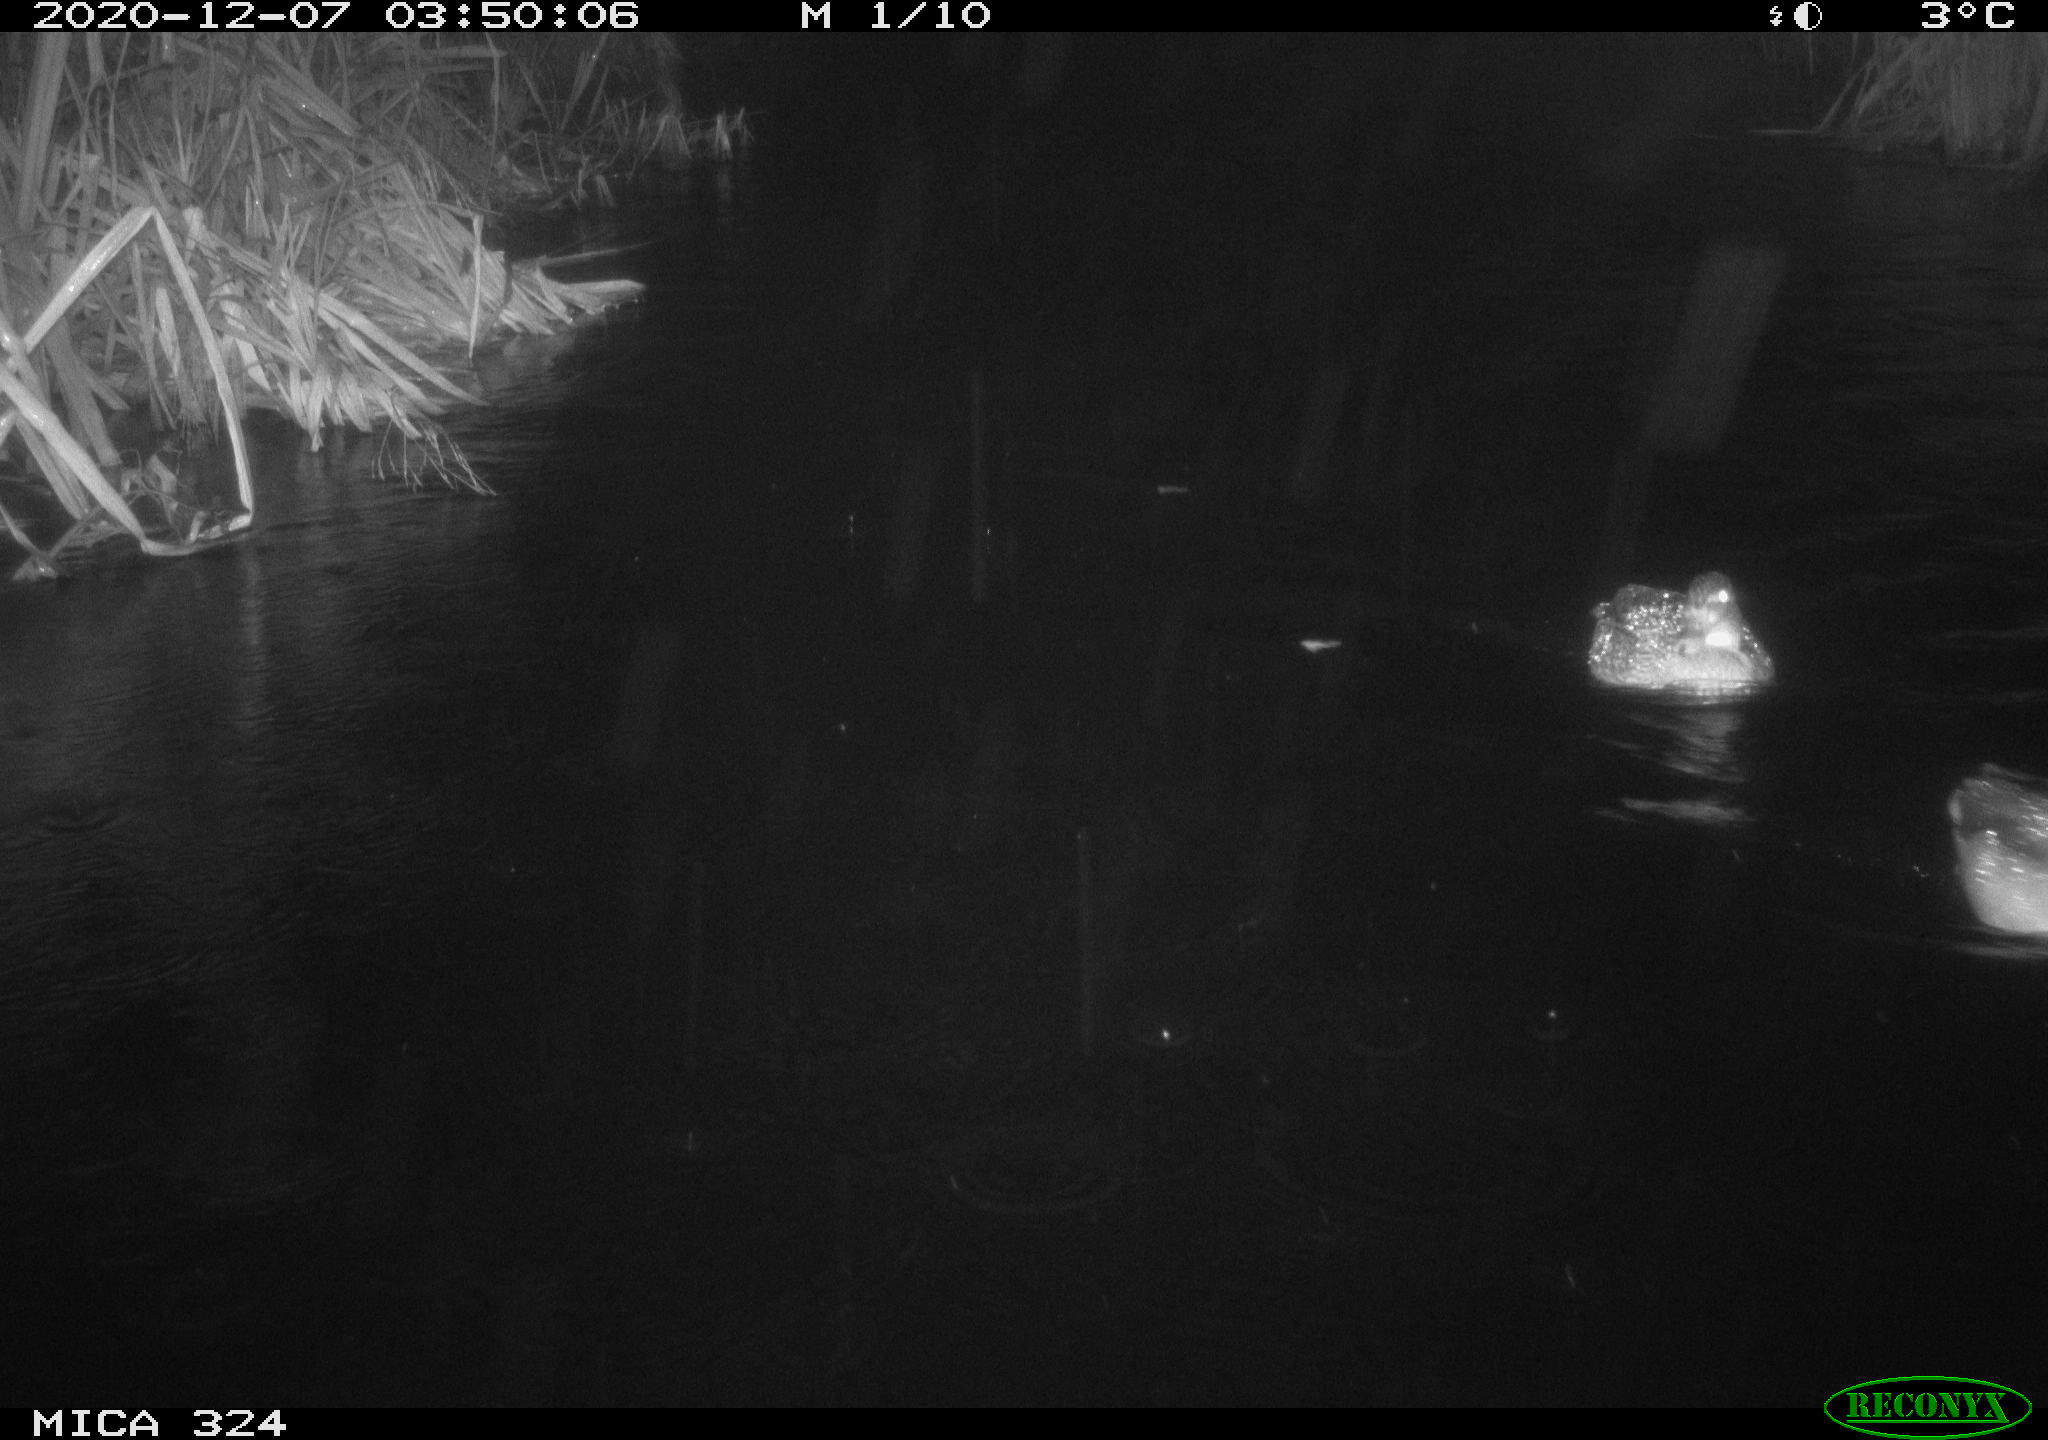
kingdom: Animalia
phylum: Chordata
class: Aves
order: Anseriformes
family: Anatidae
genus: Anas
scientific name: Anas platyrhynchos
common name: Mallard
